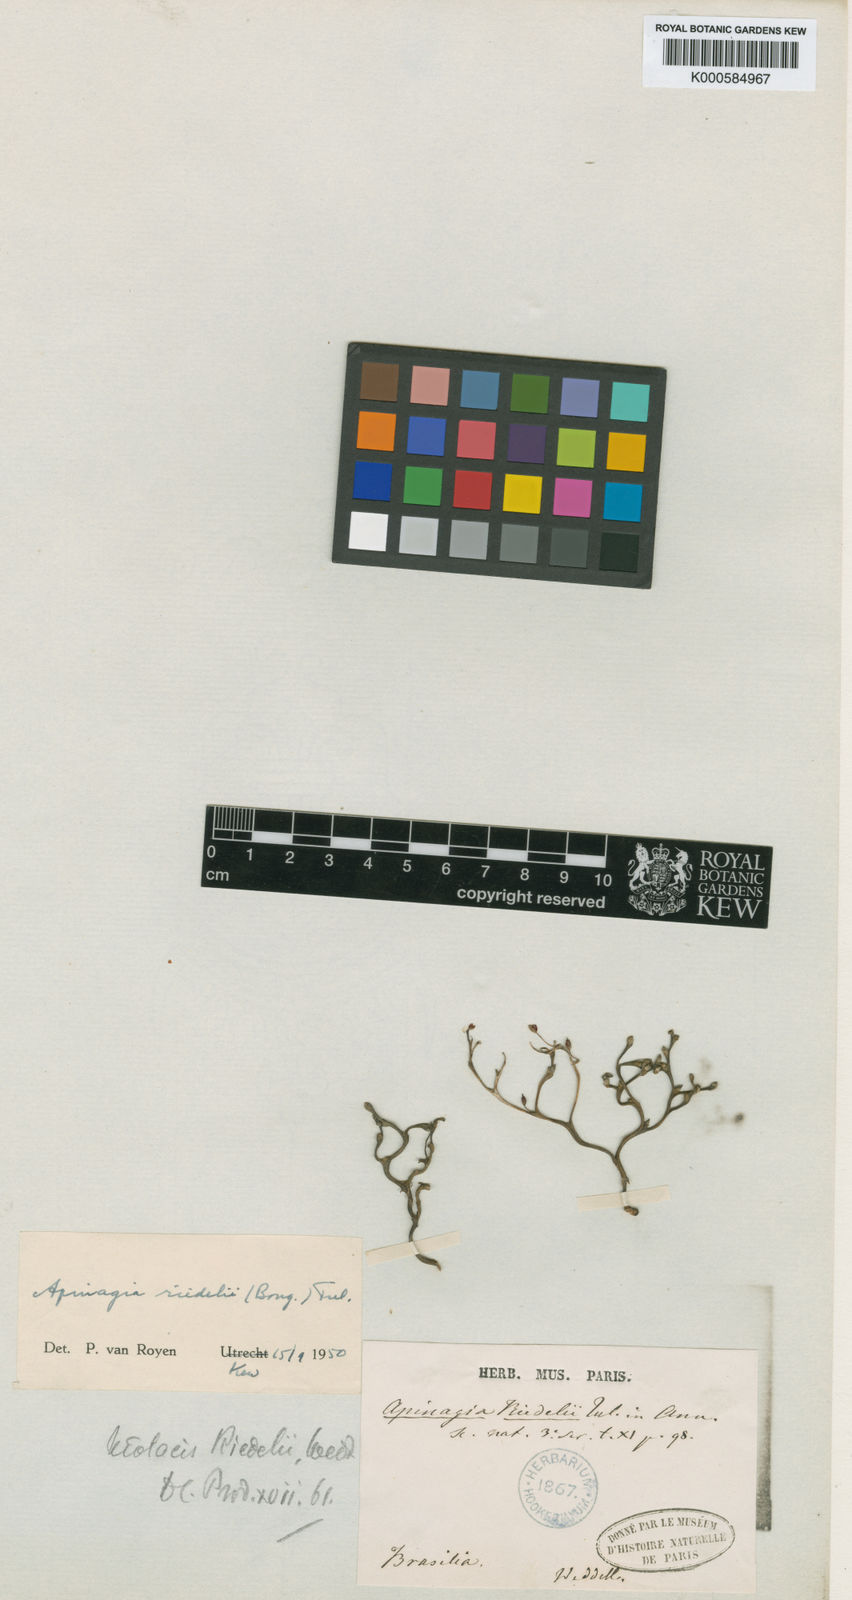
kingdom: Plantae
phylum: Tracheophyta
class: Magnoliopsida
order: Malpighiales
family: Podostemaceae
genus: Apinagia
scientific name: Apinagia riedelii
